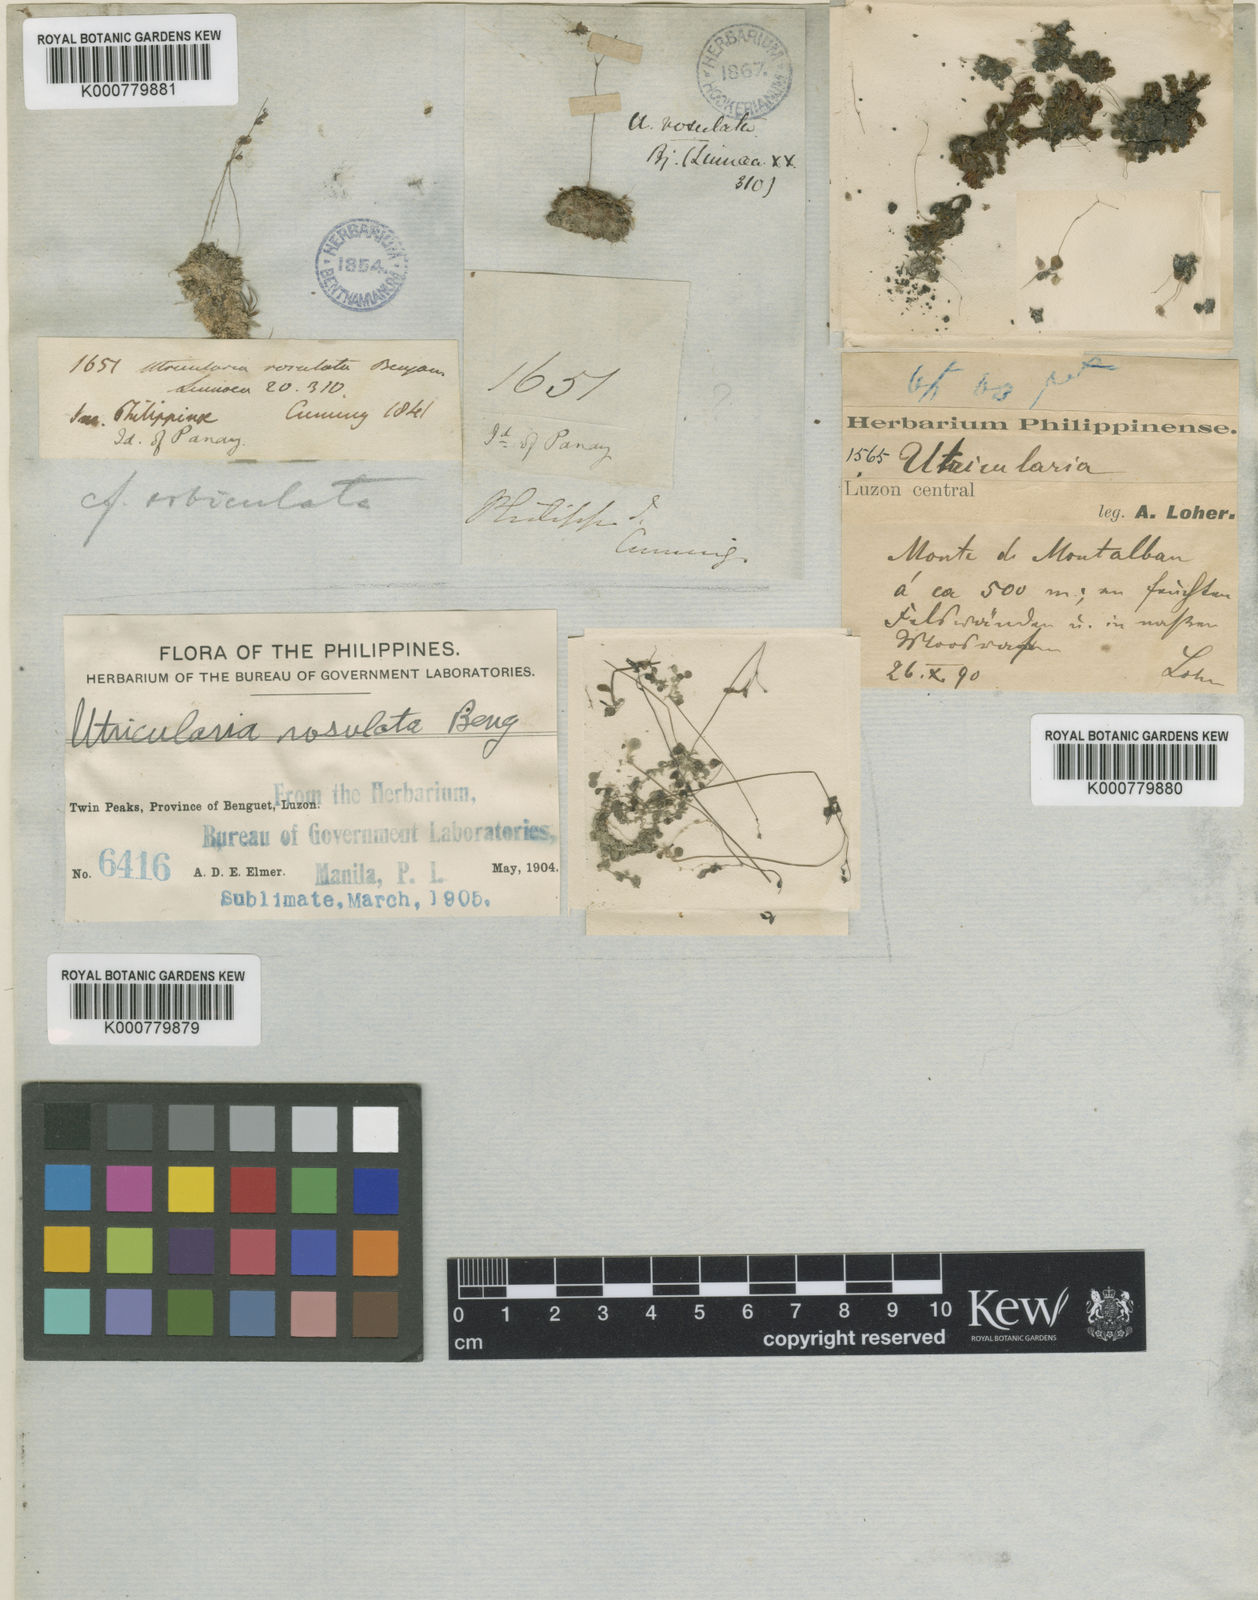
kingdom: Plantae
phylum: Tracheophyta
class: Magnoliopsida
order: Lamiales
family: Lentibulariaceae
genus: Utricularia
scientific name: Utricularia striatula
